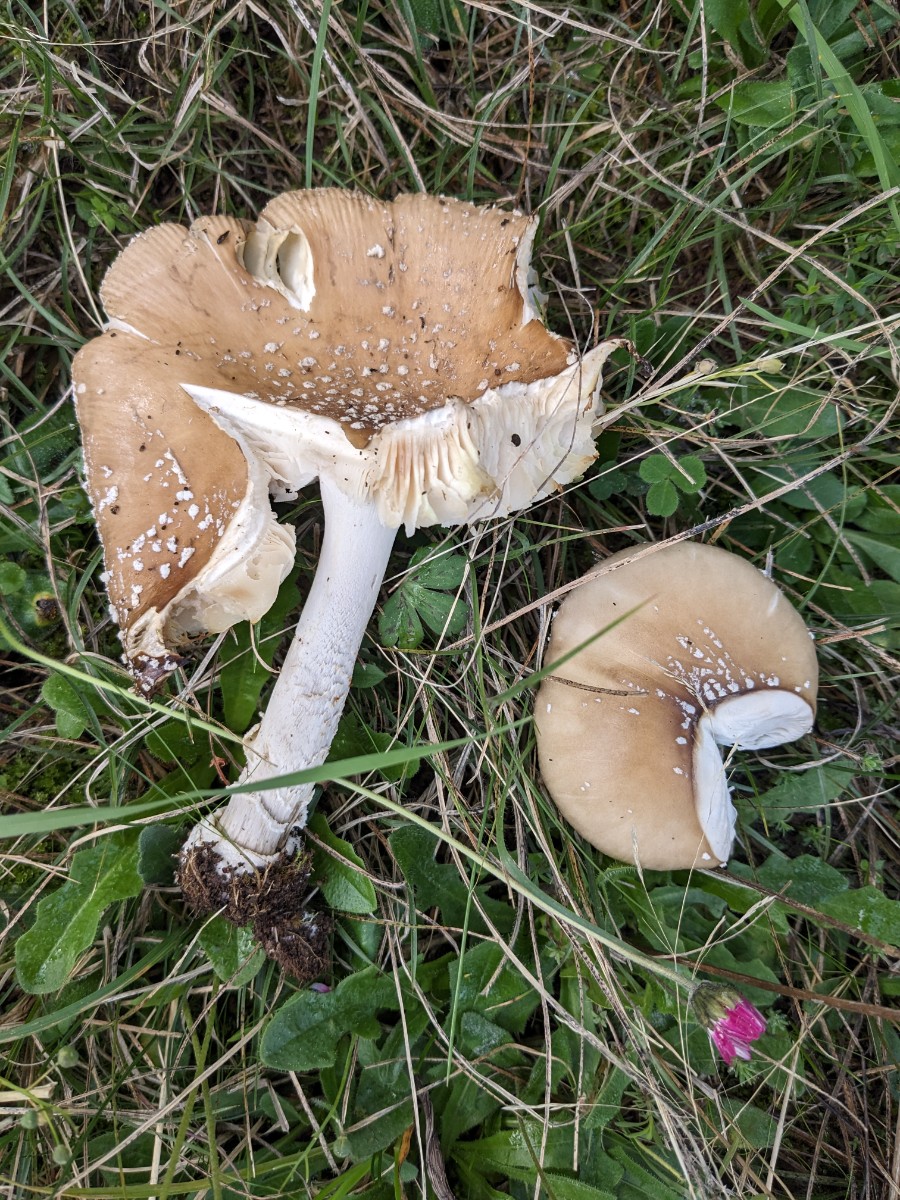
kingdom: Fungi
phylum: Basidiomycota
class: Agaricomycetes
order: Agaricales
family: Amanitaceae
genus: Amanita
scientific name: Amanita pantherina
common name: panter-fluesvamp
